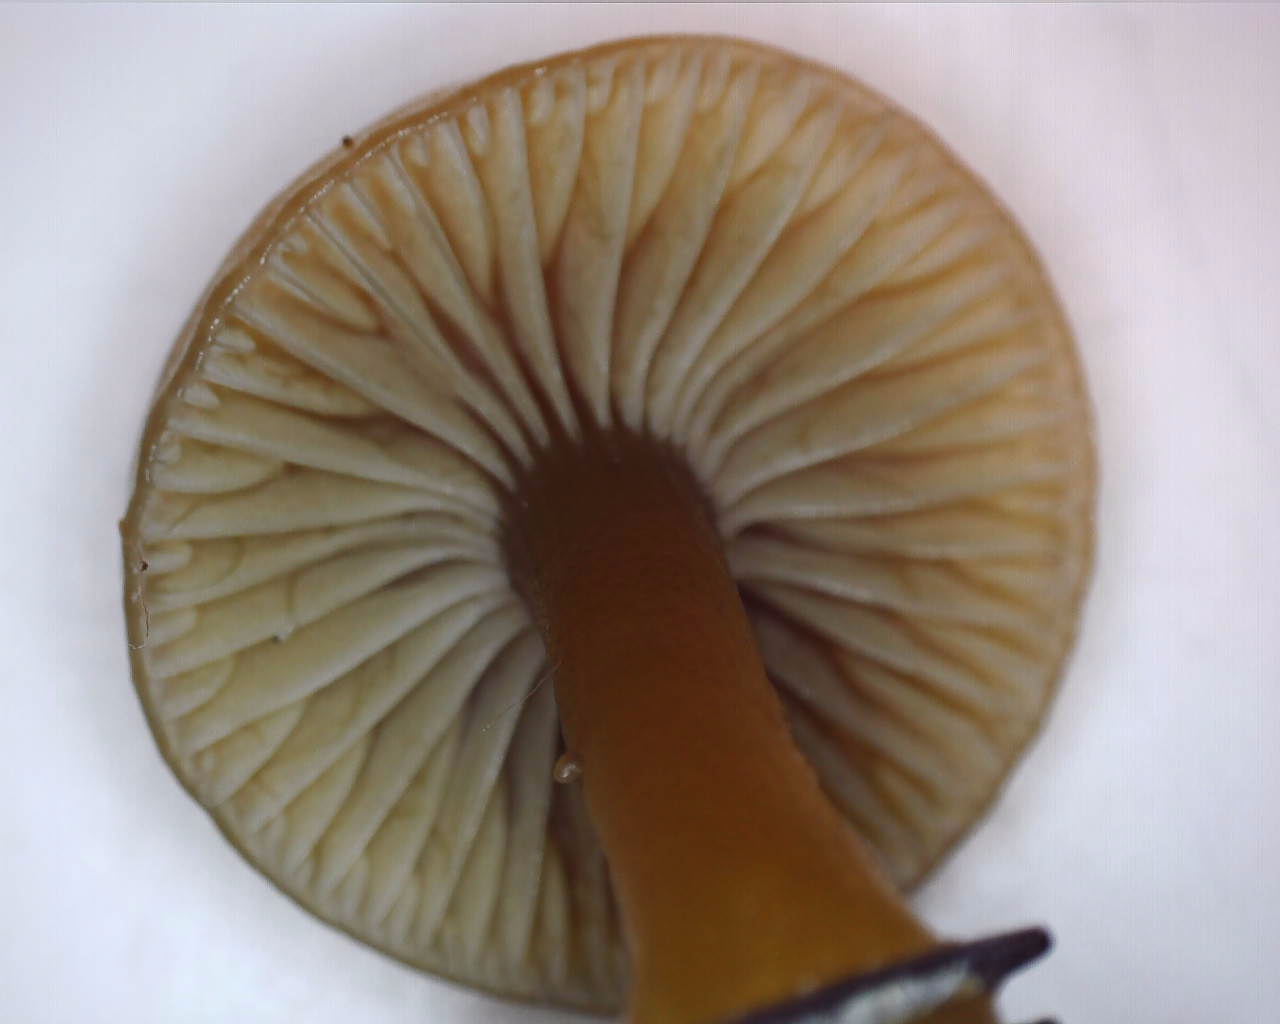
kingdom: Fungi
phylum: Basidiomycota
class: Agaricomycetes
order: Agaricales
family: Hygrophoraceae
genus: Gliophorus
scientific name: Gliophorus laetus
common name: brusk-vokshat
